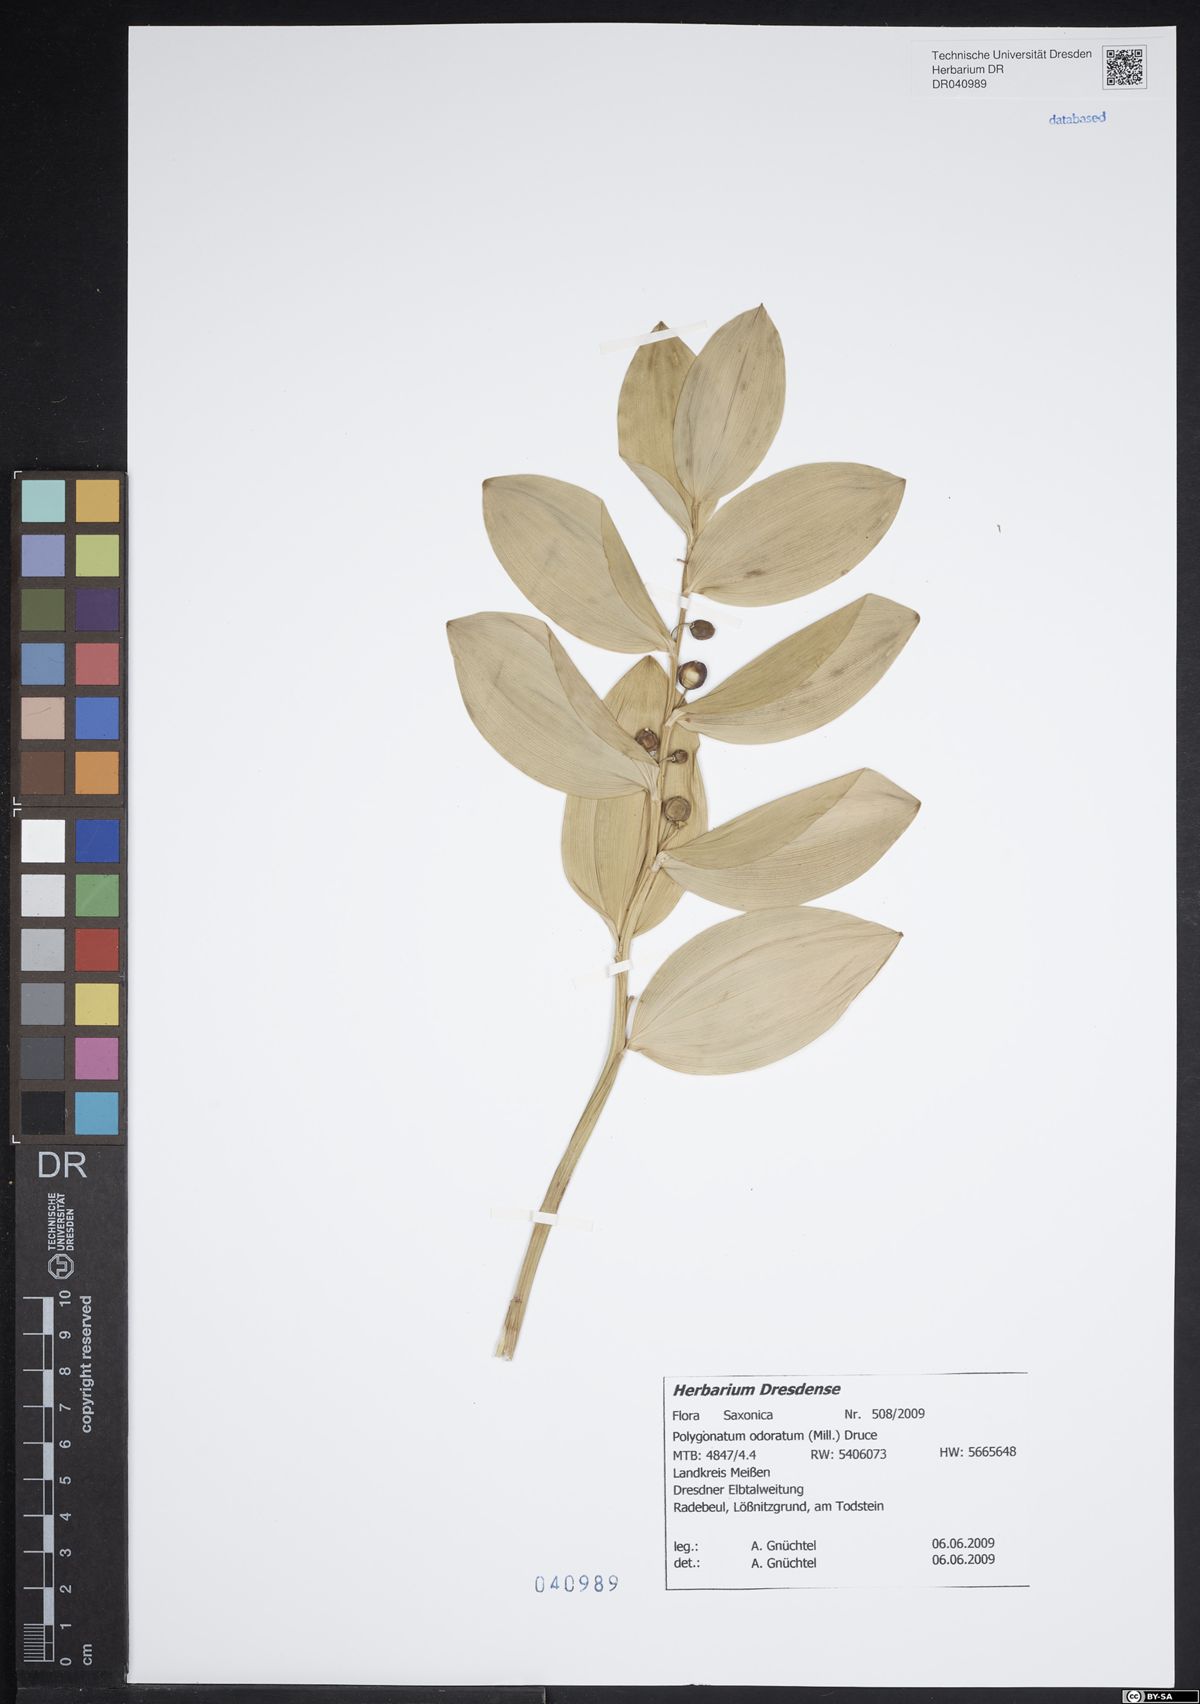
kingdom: Plantae
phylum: Tracheophyta
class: Liliopsida
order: Asparagales
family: Asparagaceae
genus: Polygonatum
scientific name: Polygonatum odoratum
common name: Angular solomon's-seal
